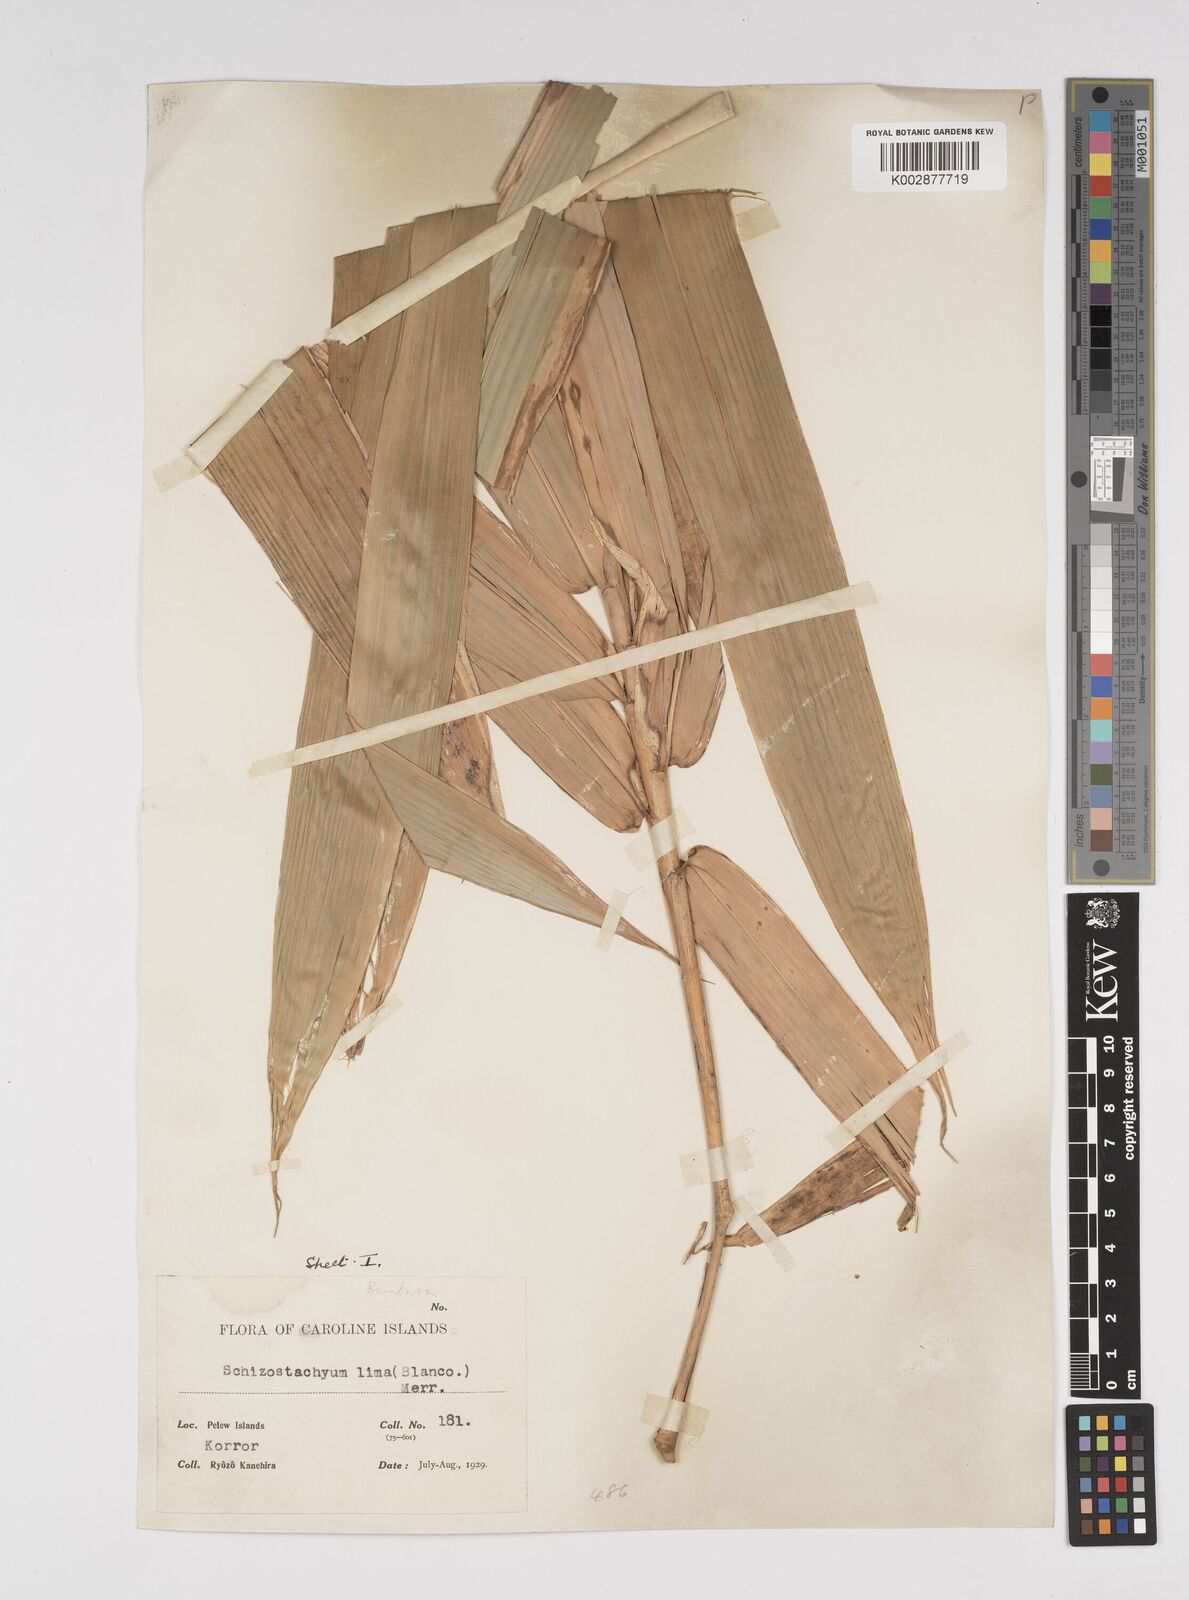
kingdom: Plantae
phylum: Tracheophyta
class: Liliopsida
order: Poales
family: Poaceae
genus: Bambusa
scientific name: Bambusa solomonensis
